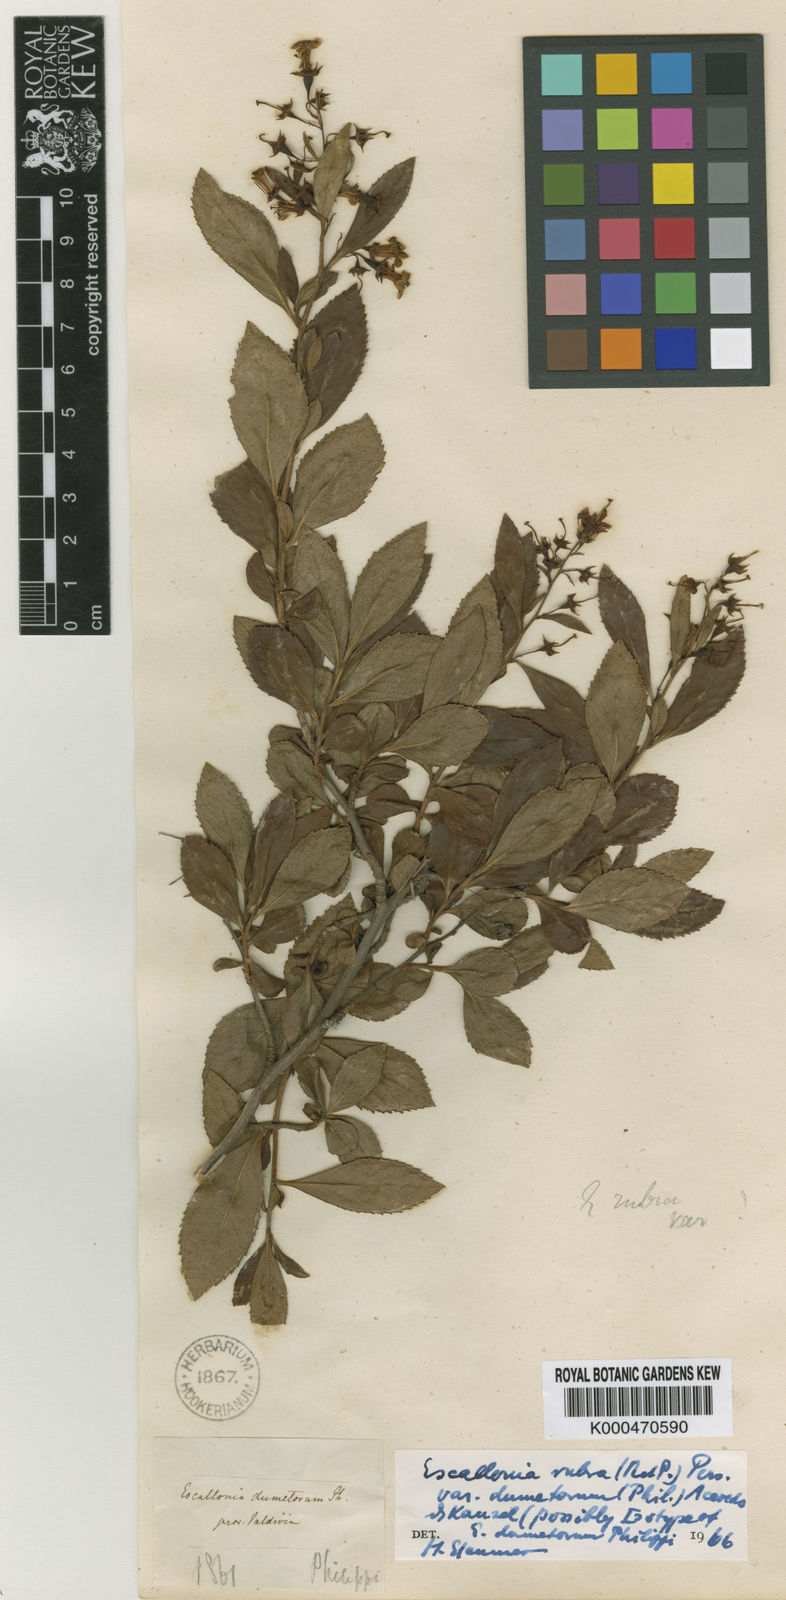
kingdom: Plantae
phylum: Tracheophyta
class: Magnoliopsida
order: Escalloniales
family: Escalloniaceae
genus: Escallonia
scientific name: Escallonia rubra
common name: Redclaws
